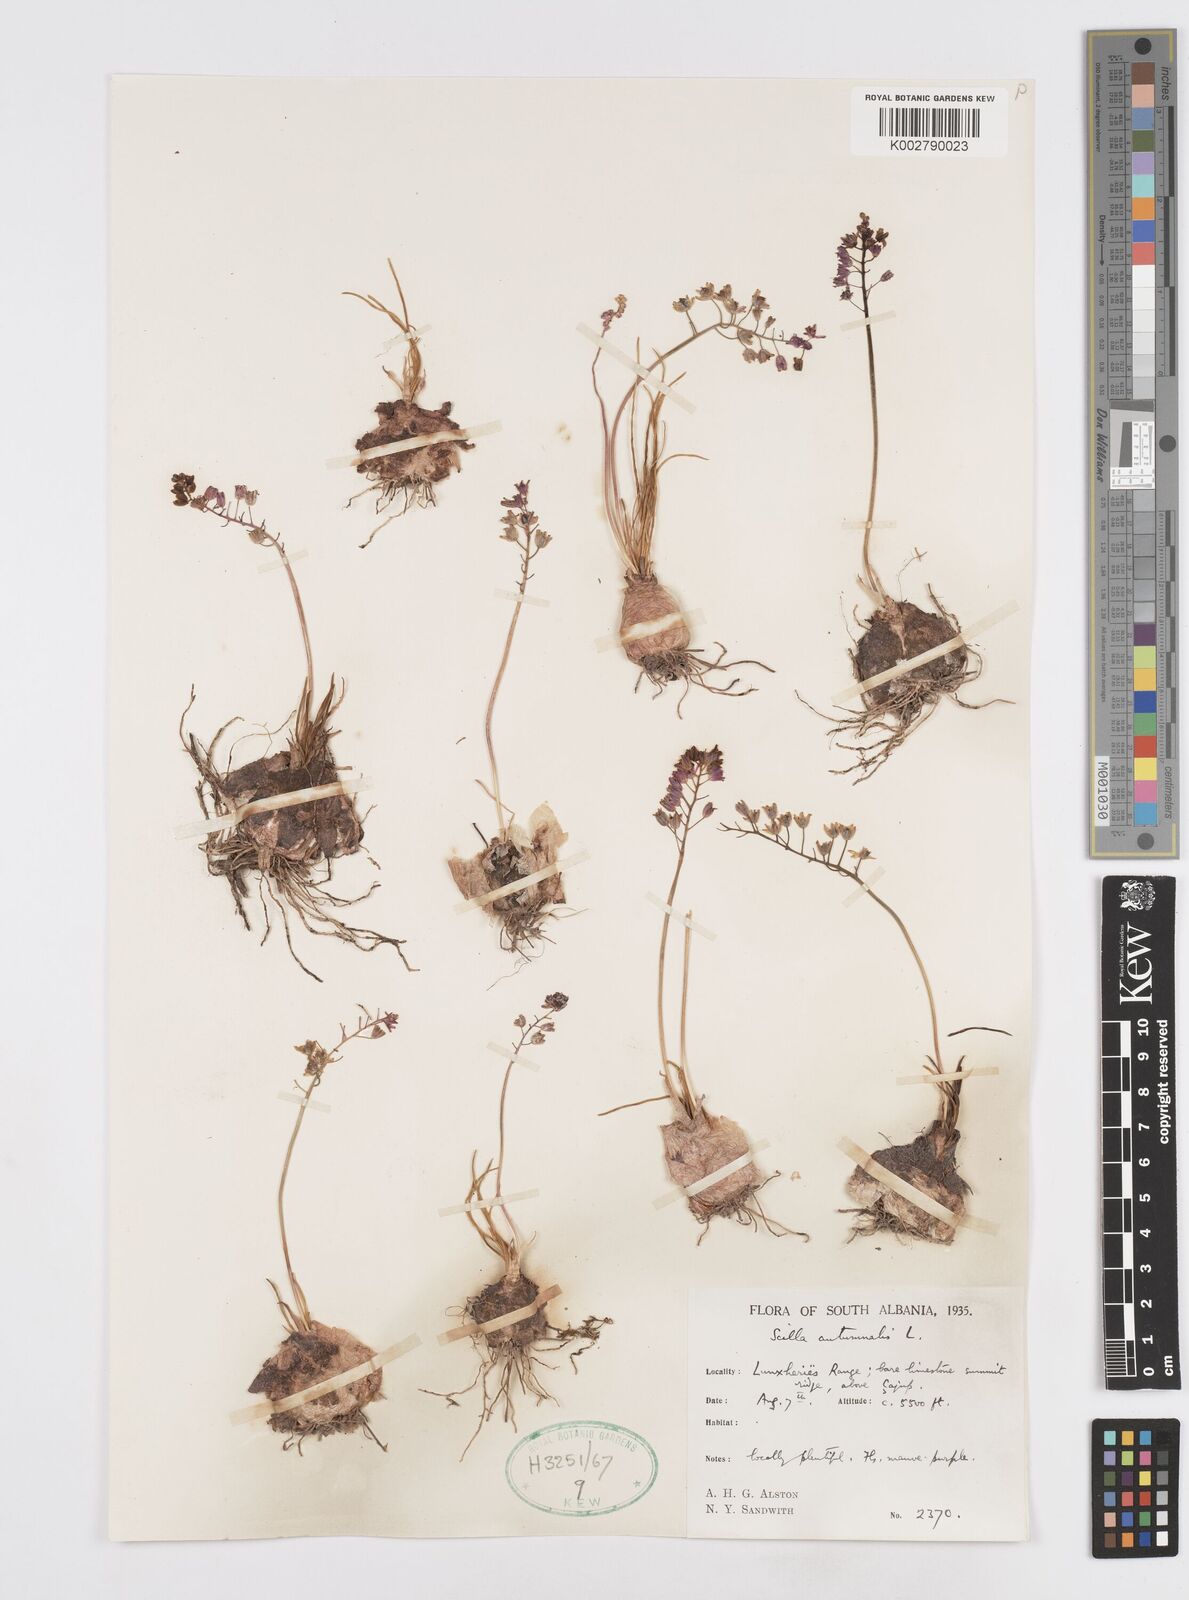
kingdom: Plantae
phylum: Tracheophyta
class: Liliopsida
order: Asparagales
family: Asparagaceae
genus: Prospero
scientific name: Prospero autumnale
